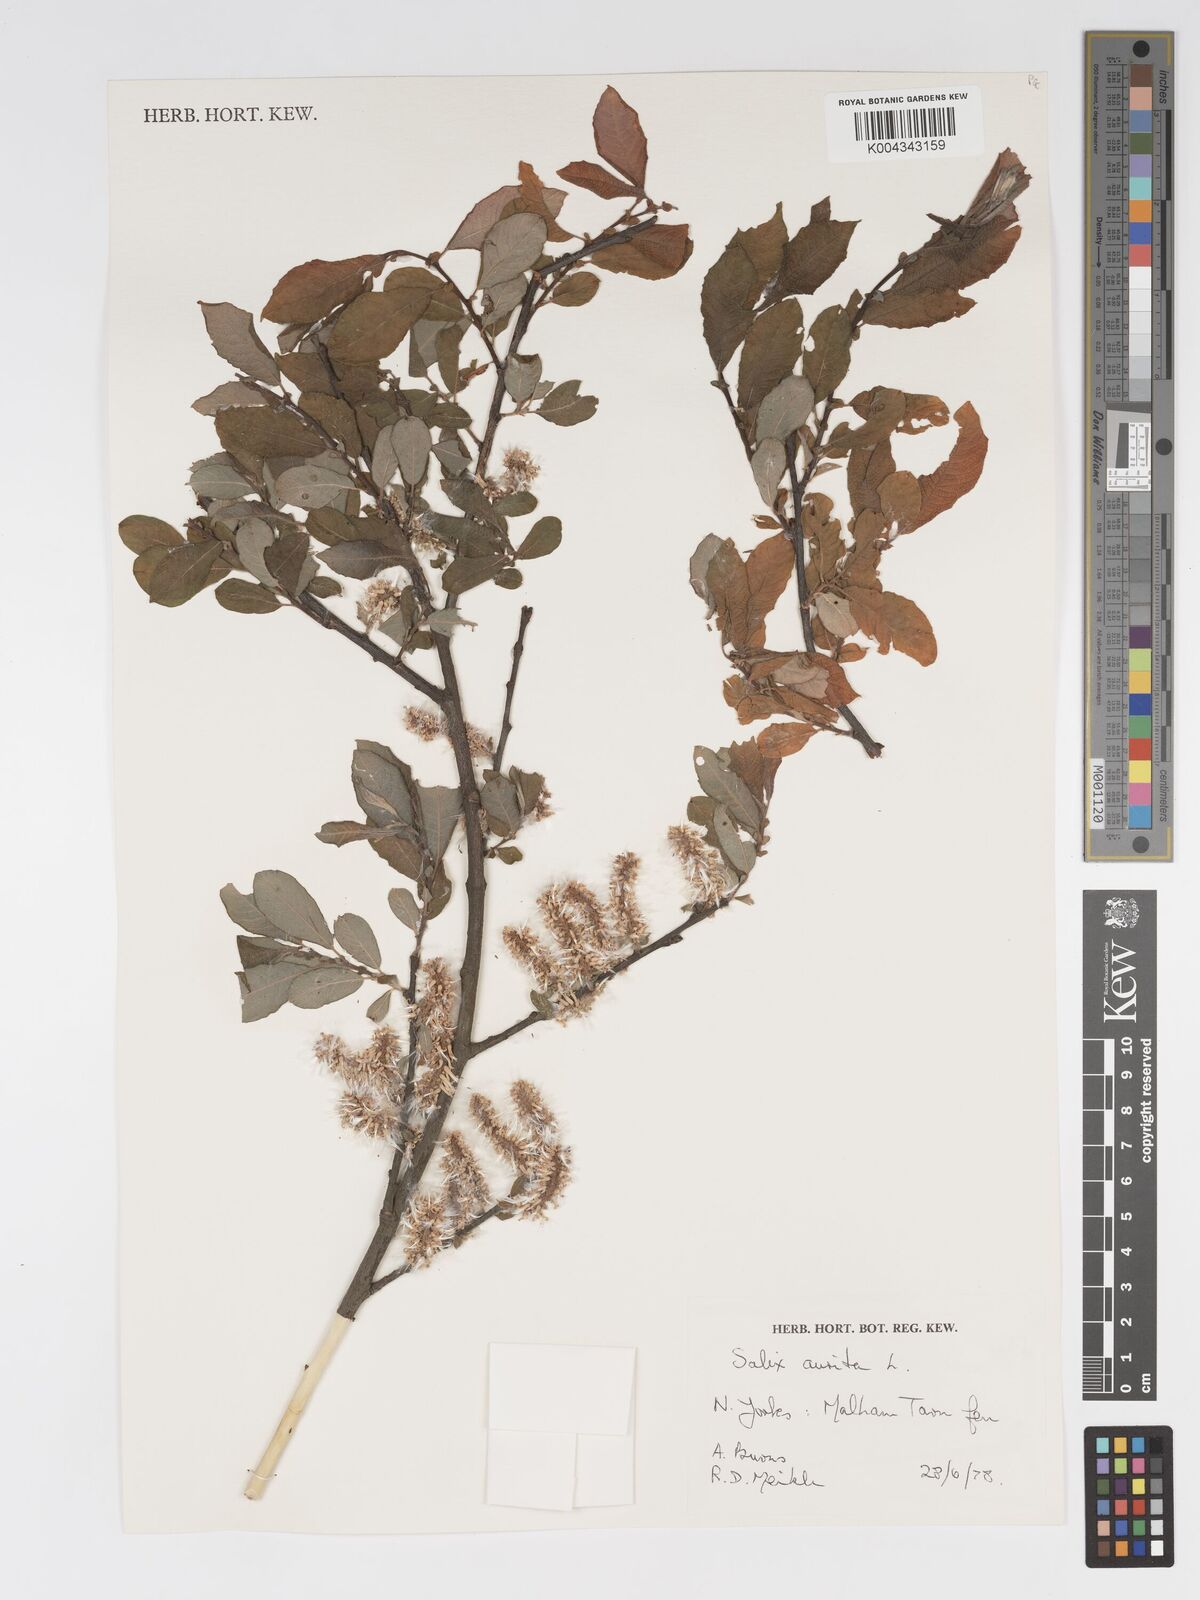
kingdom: Plantae
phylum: Tracheophyta
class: Magnoliopsida
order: Malpighiales
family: Salicaceae
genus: Salix
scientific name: Salix aurita
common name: Eared willow
